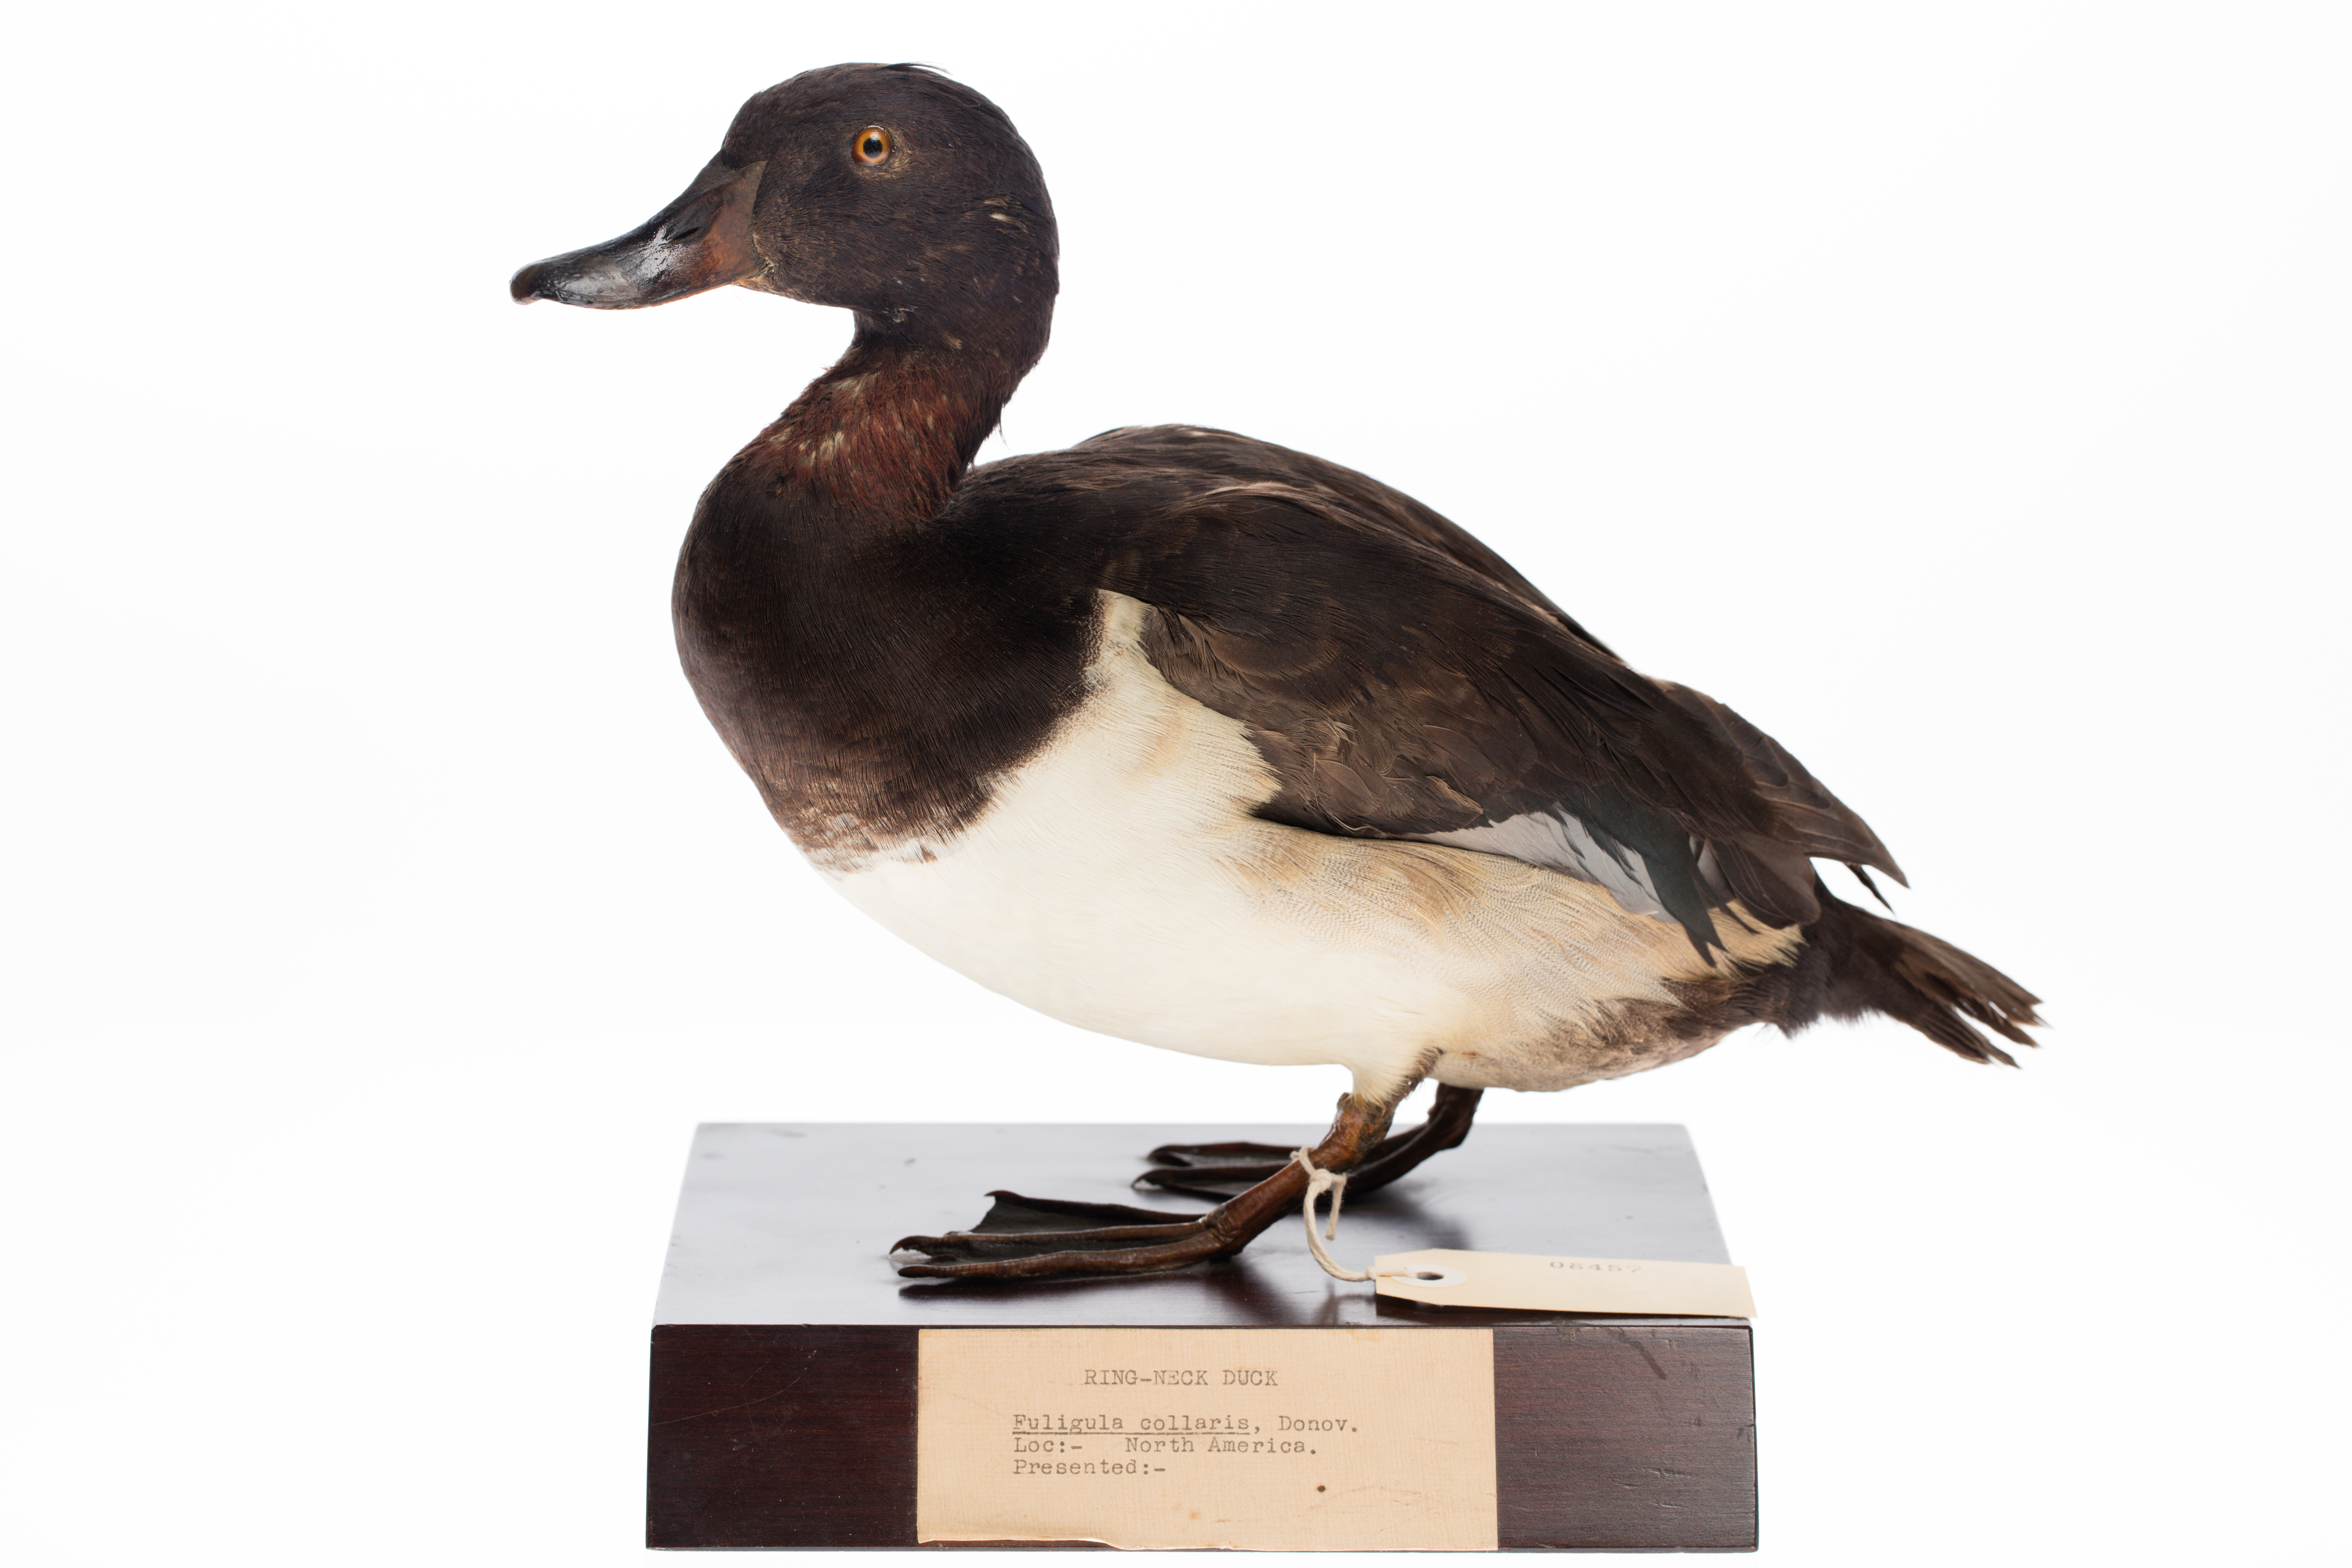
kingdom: Animalia
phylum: Chordata
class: Aves
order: Anseriformes
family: Anatidae
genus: Aythya
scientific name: Aythya collaris
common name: Ring-necked duck
